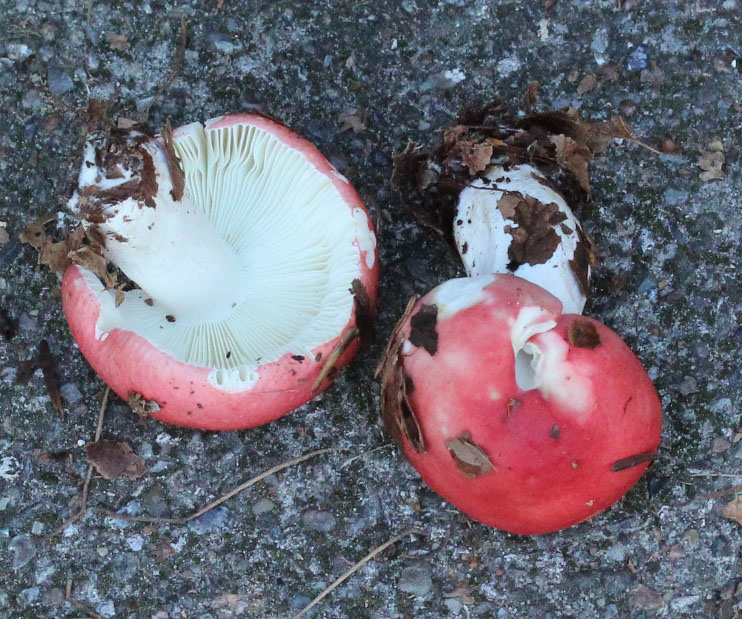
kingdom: Fungi
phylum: Basidiomycota
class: Agaricomycetes
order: Russulales
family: Russulaceae
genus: Russula
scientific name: Russula nobilis
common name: lille gift-skørhat
